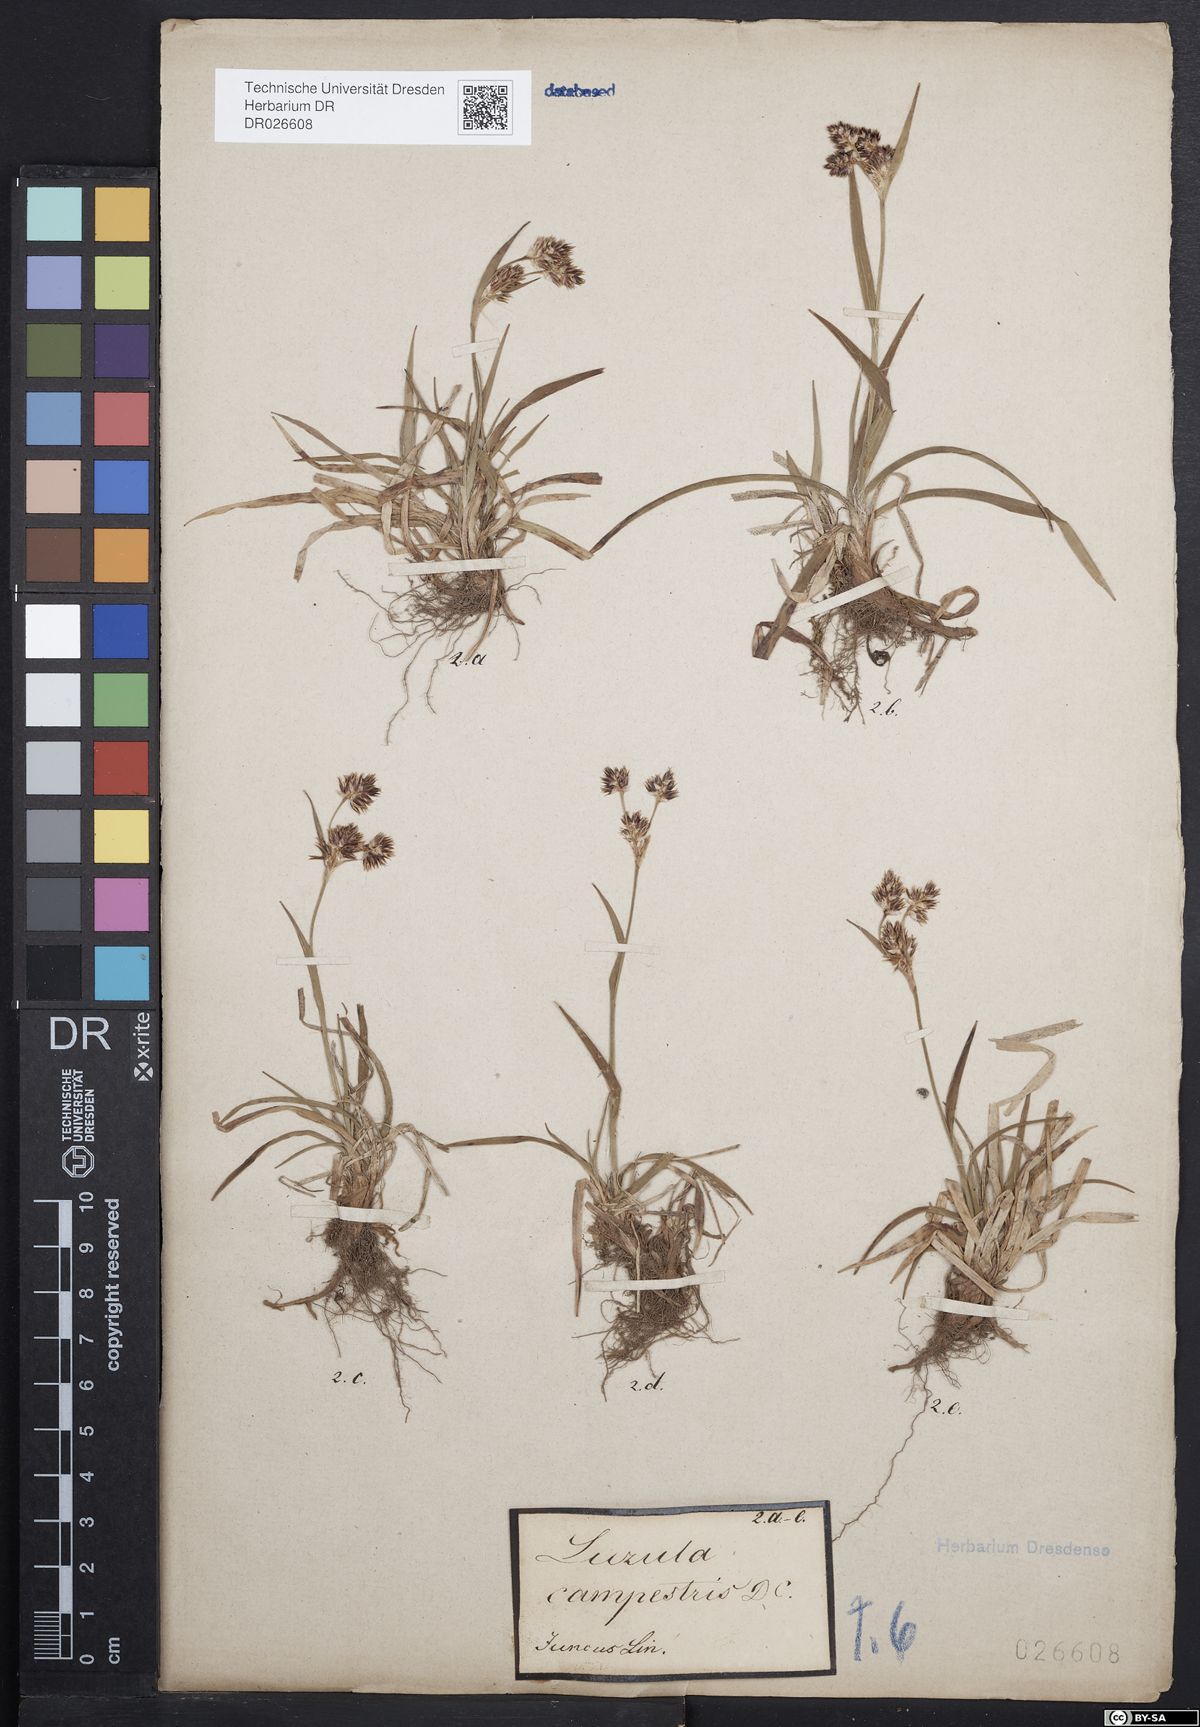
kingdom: Plantae
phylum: Tracheophyta
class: Liliopsida
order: Poales
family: Juncaceae
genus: Luzula
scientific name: Luzula campestris
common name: Field wood-rush
